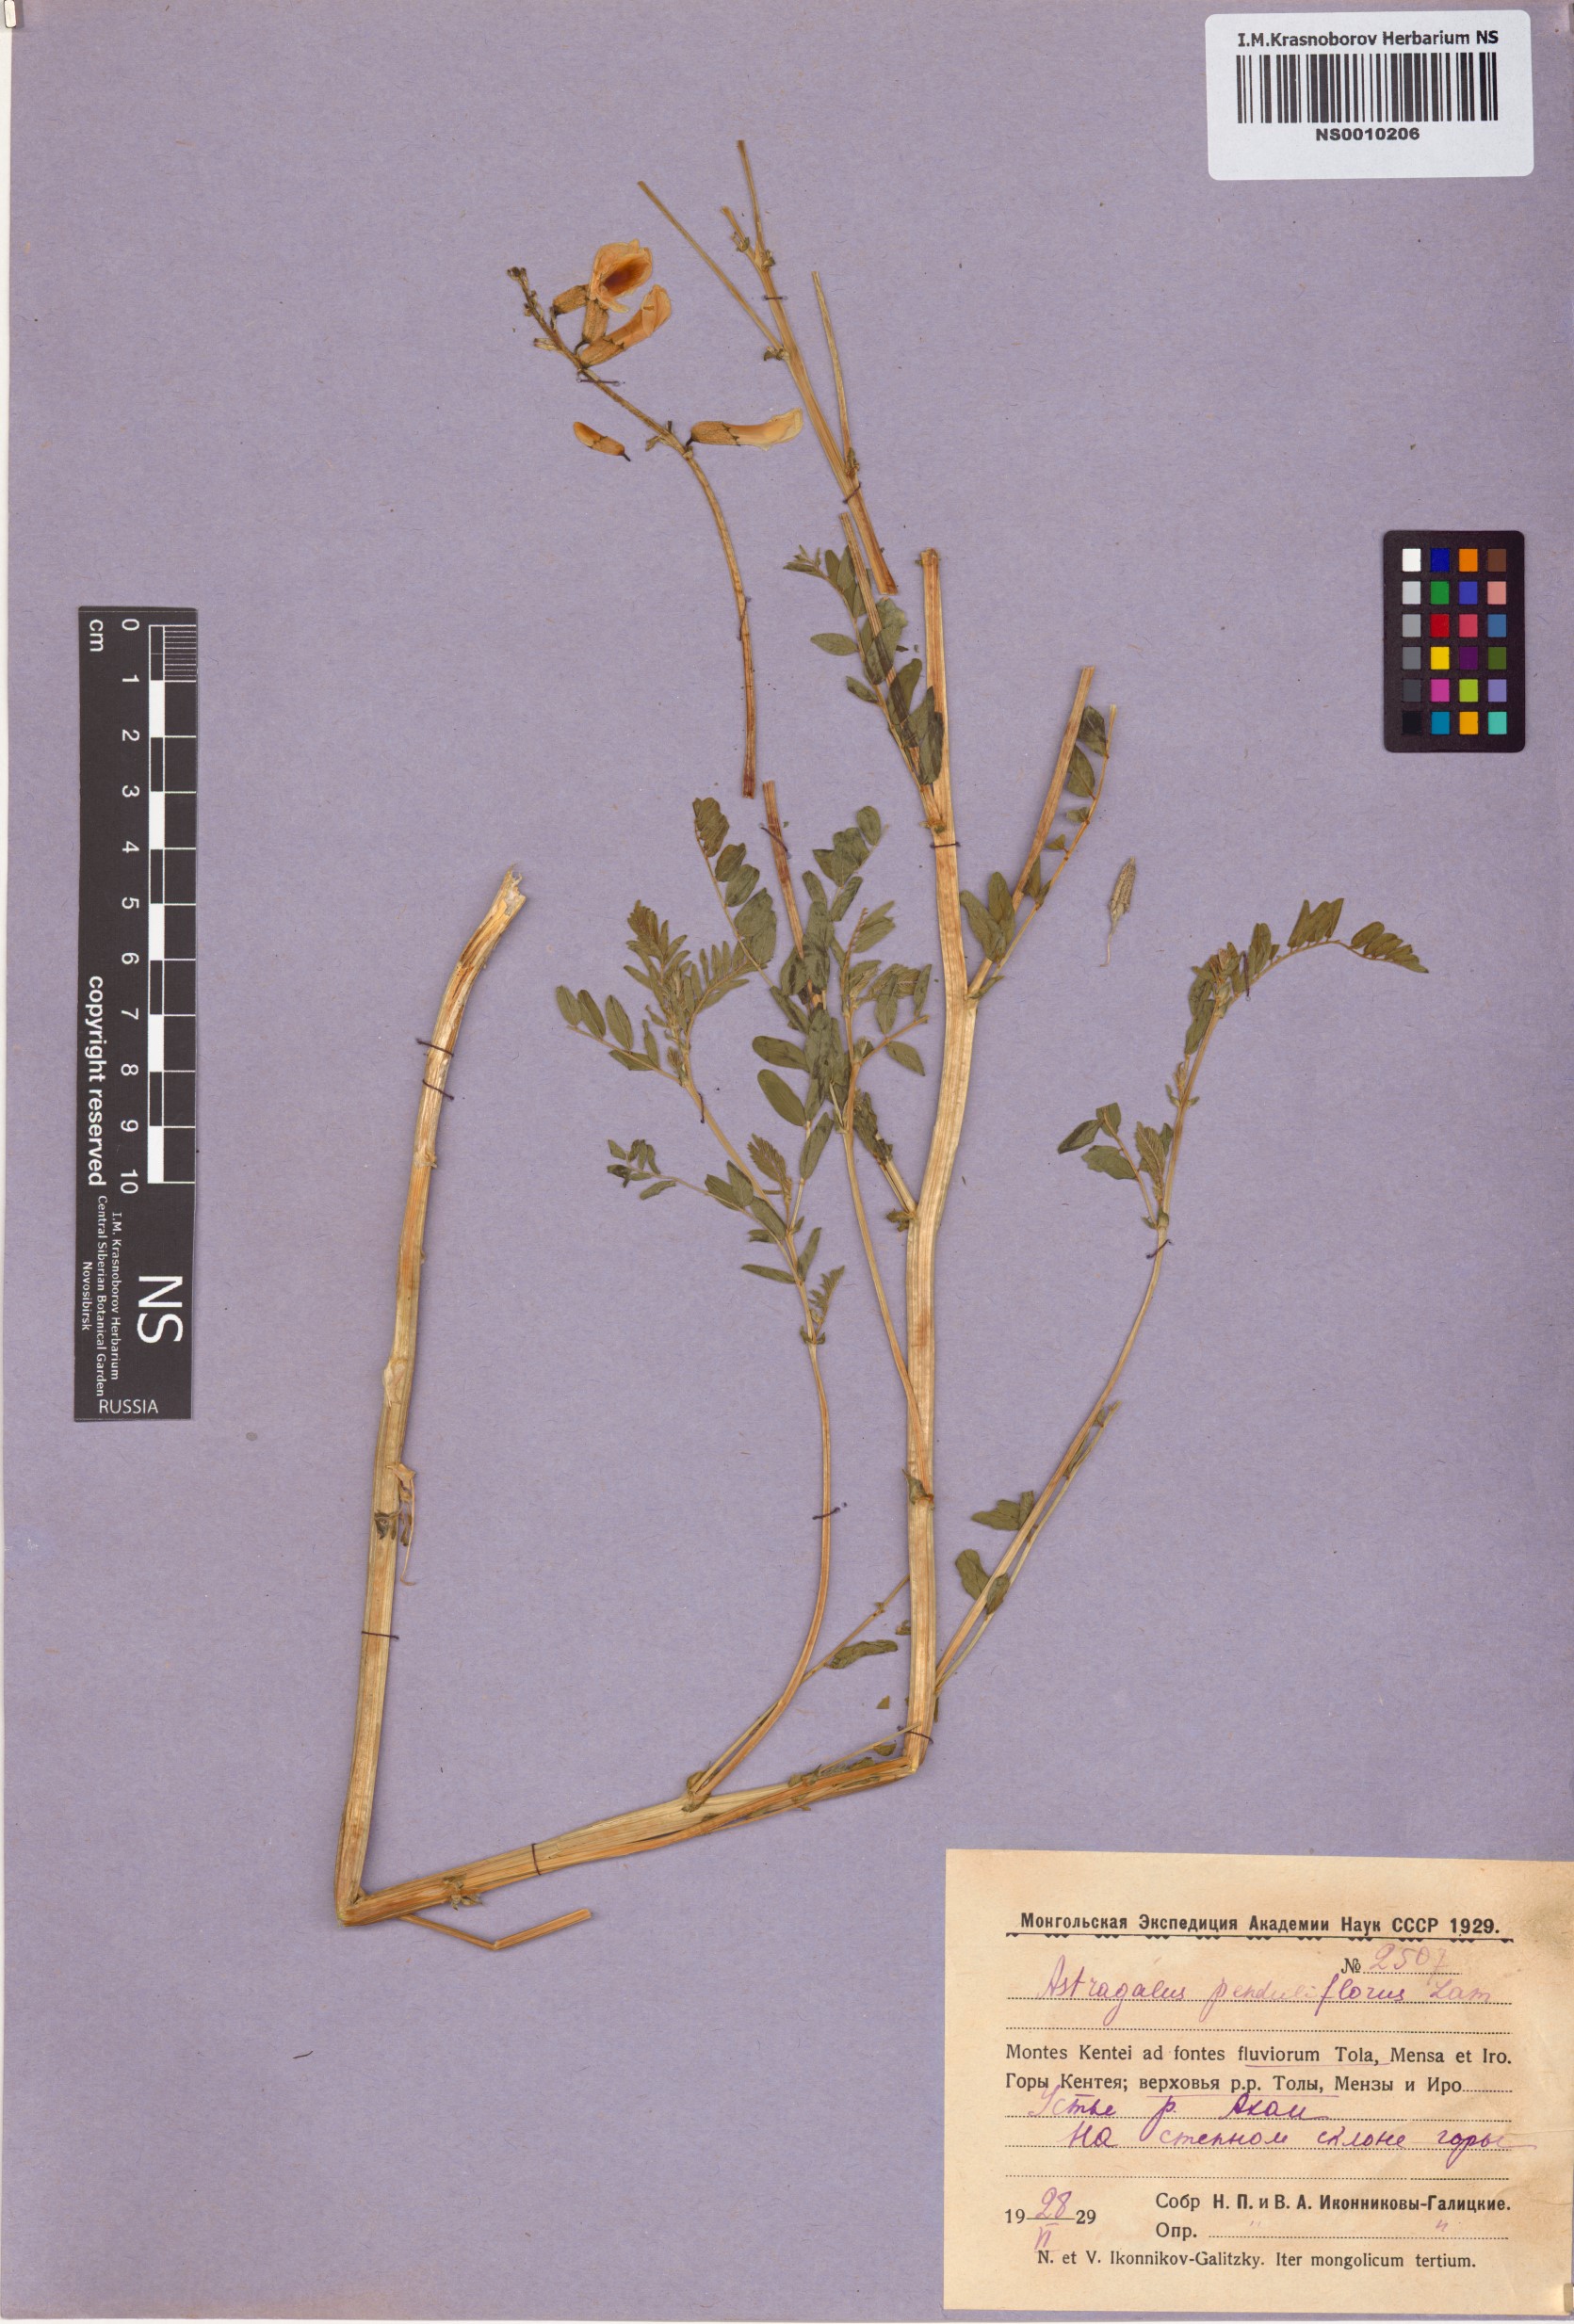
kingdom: Plantae
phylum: Tracheophyta
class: Magnoliopsida
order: Fabales
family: Fabaceae
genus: Astragalus
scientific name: Astragalus penduliflorus
